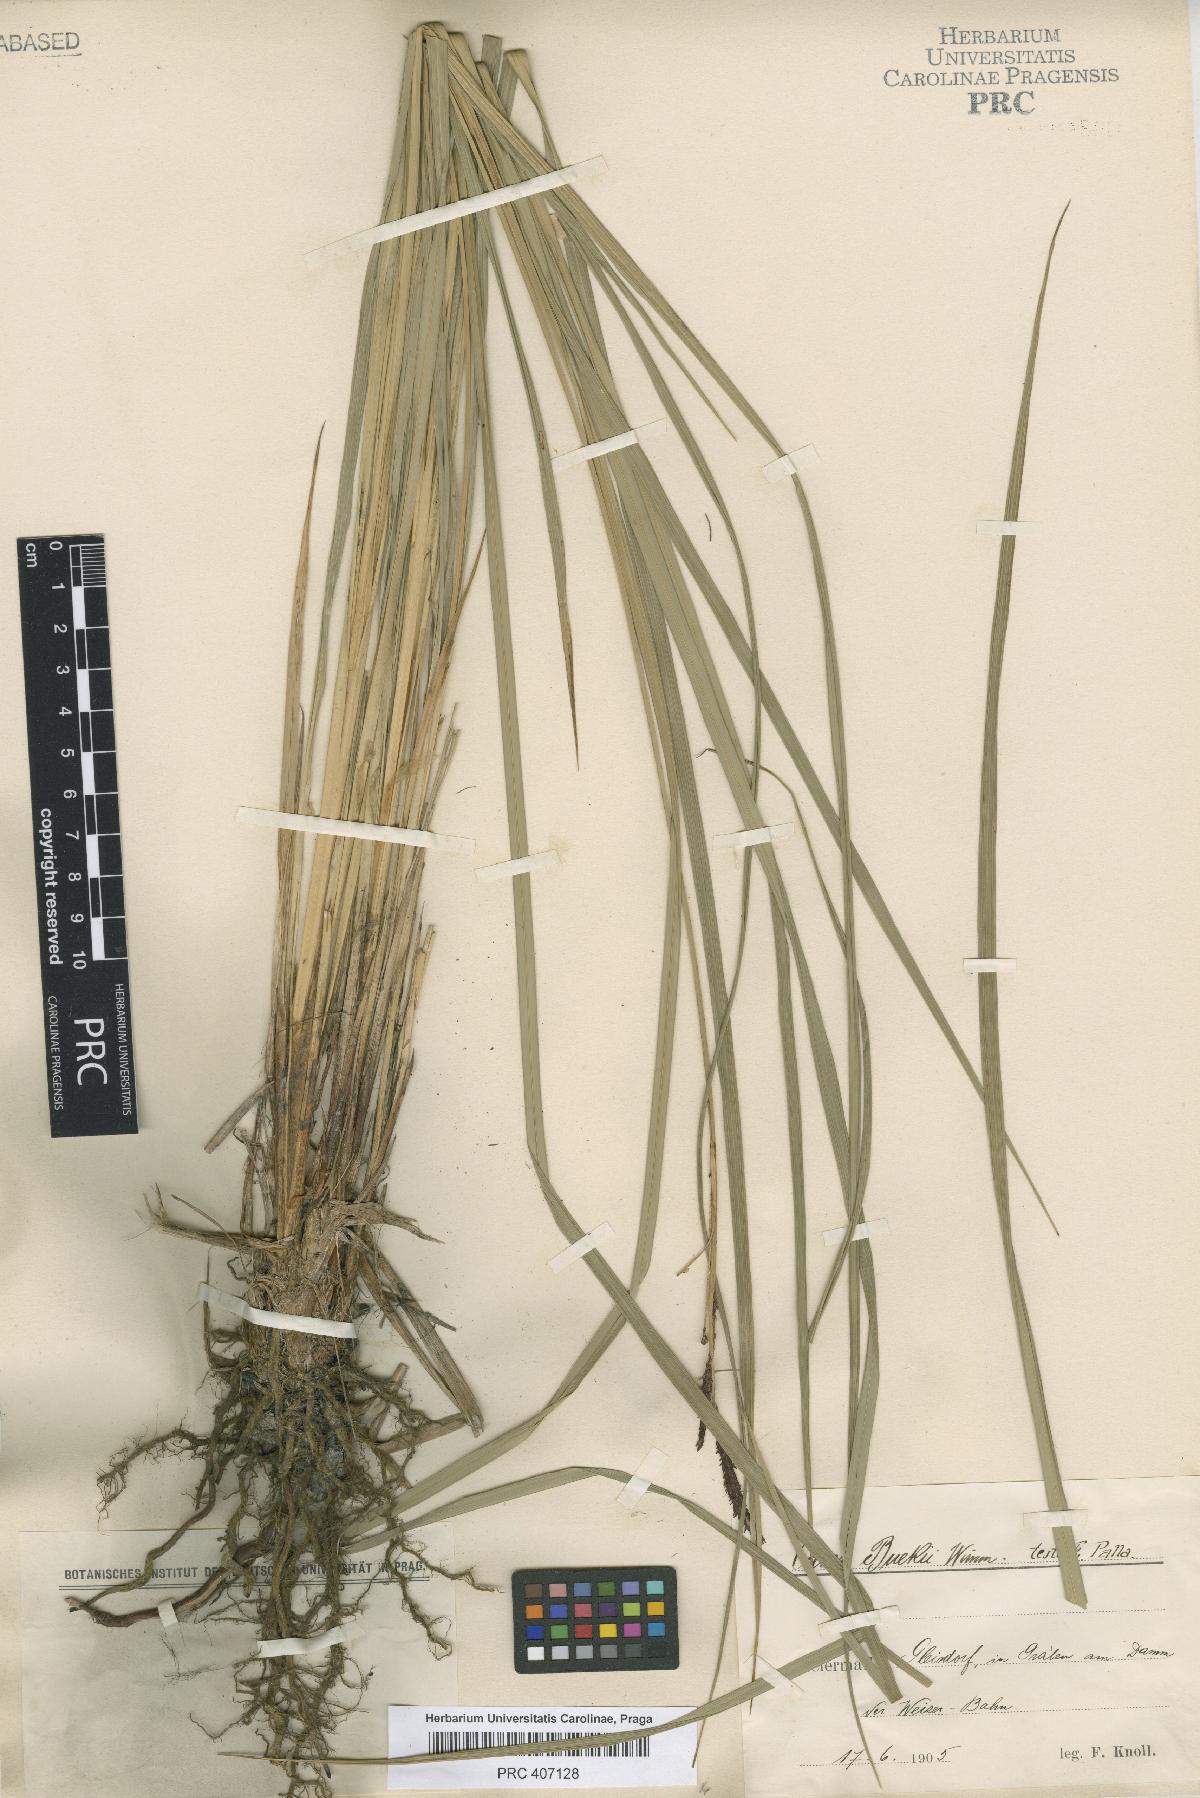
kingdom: Plantae
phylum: Tracheophyta
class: Liliopsida
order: Poales
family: Cyperaceae
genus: Carex
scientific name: Carex buekii
